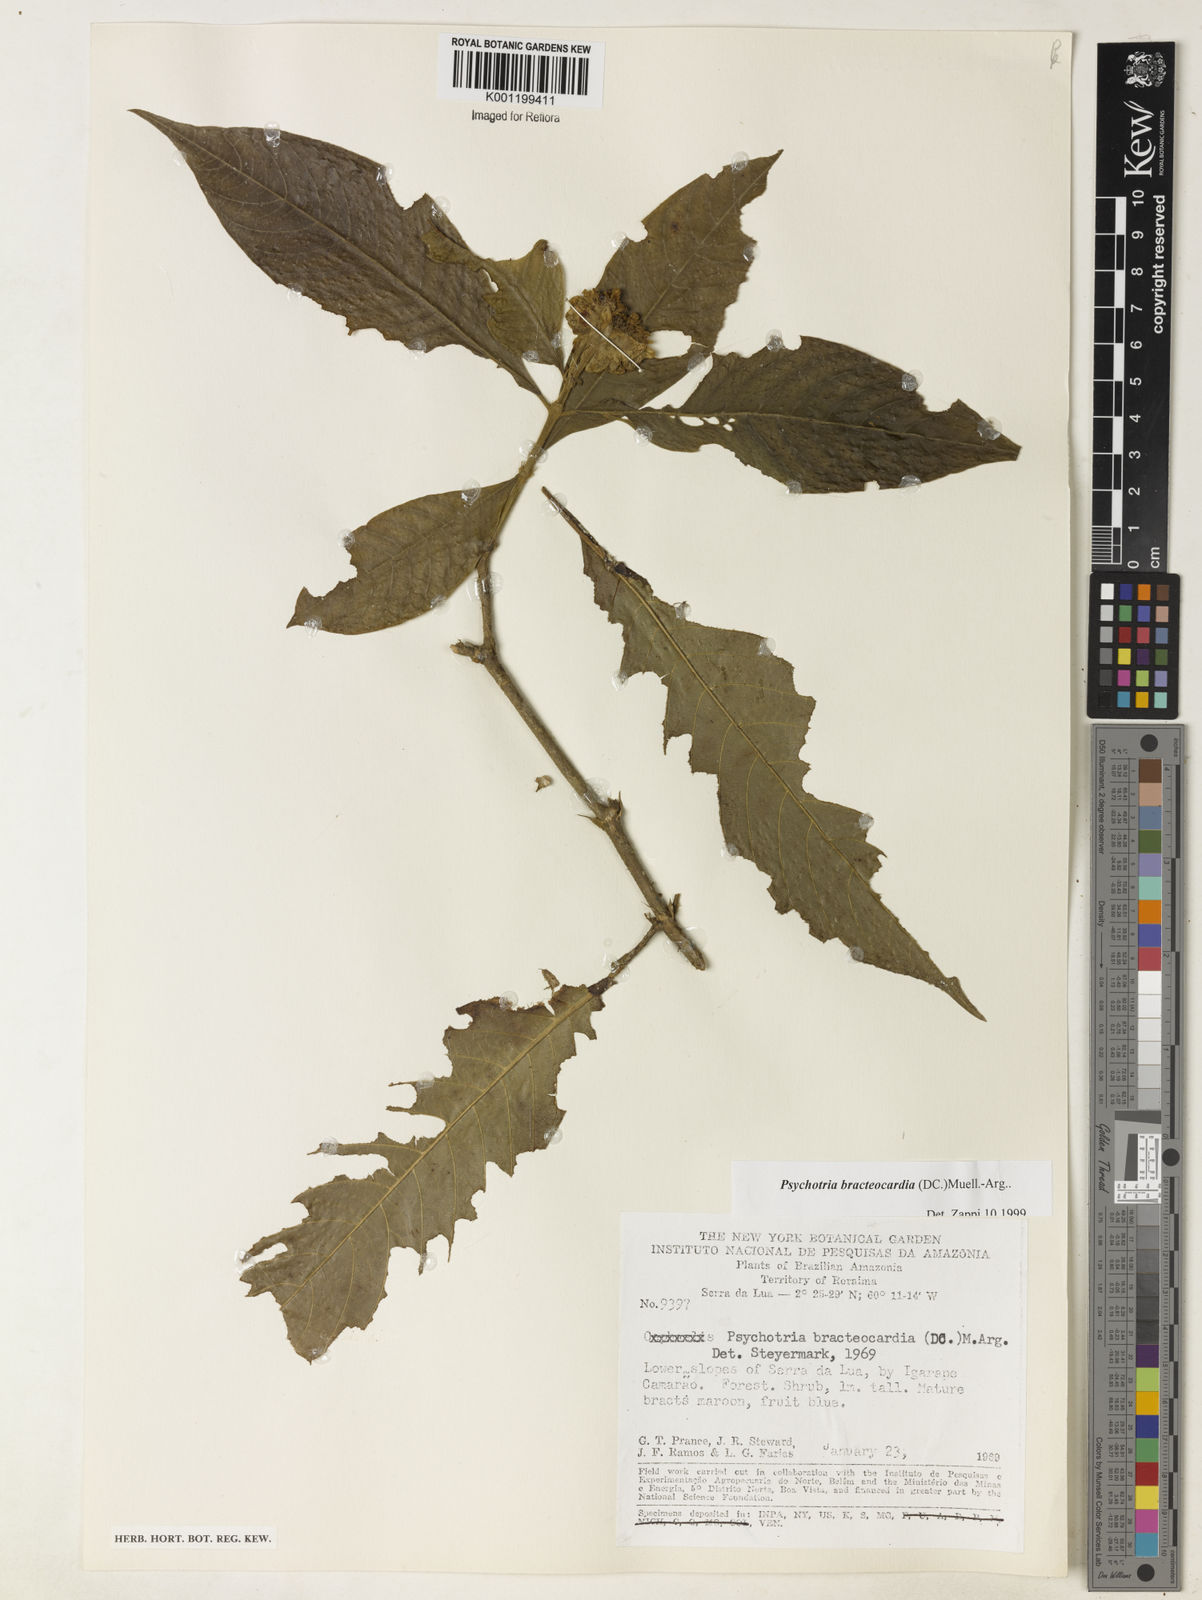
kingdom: Plantae
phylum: Tracheophyta
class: Magnoliopsida
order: Gentianales
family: Rubiaceae
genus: Psychotria
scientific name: Psychotria
